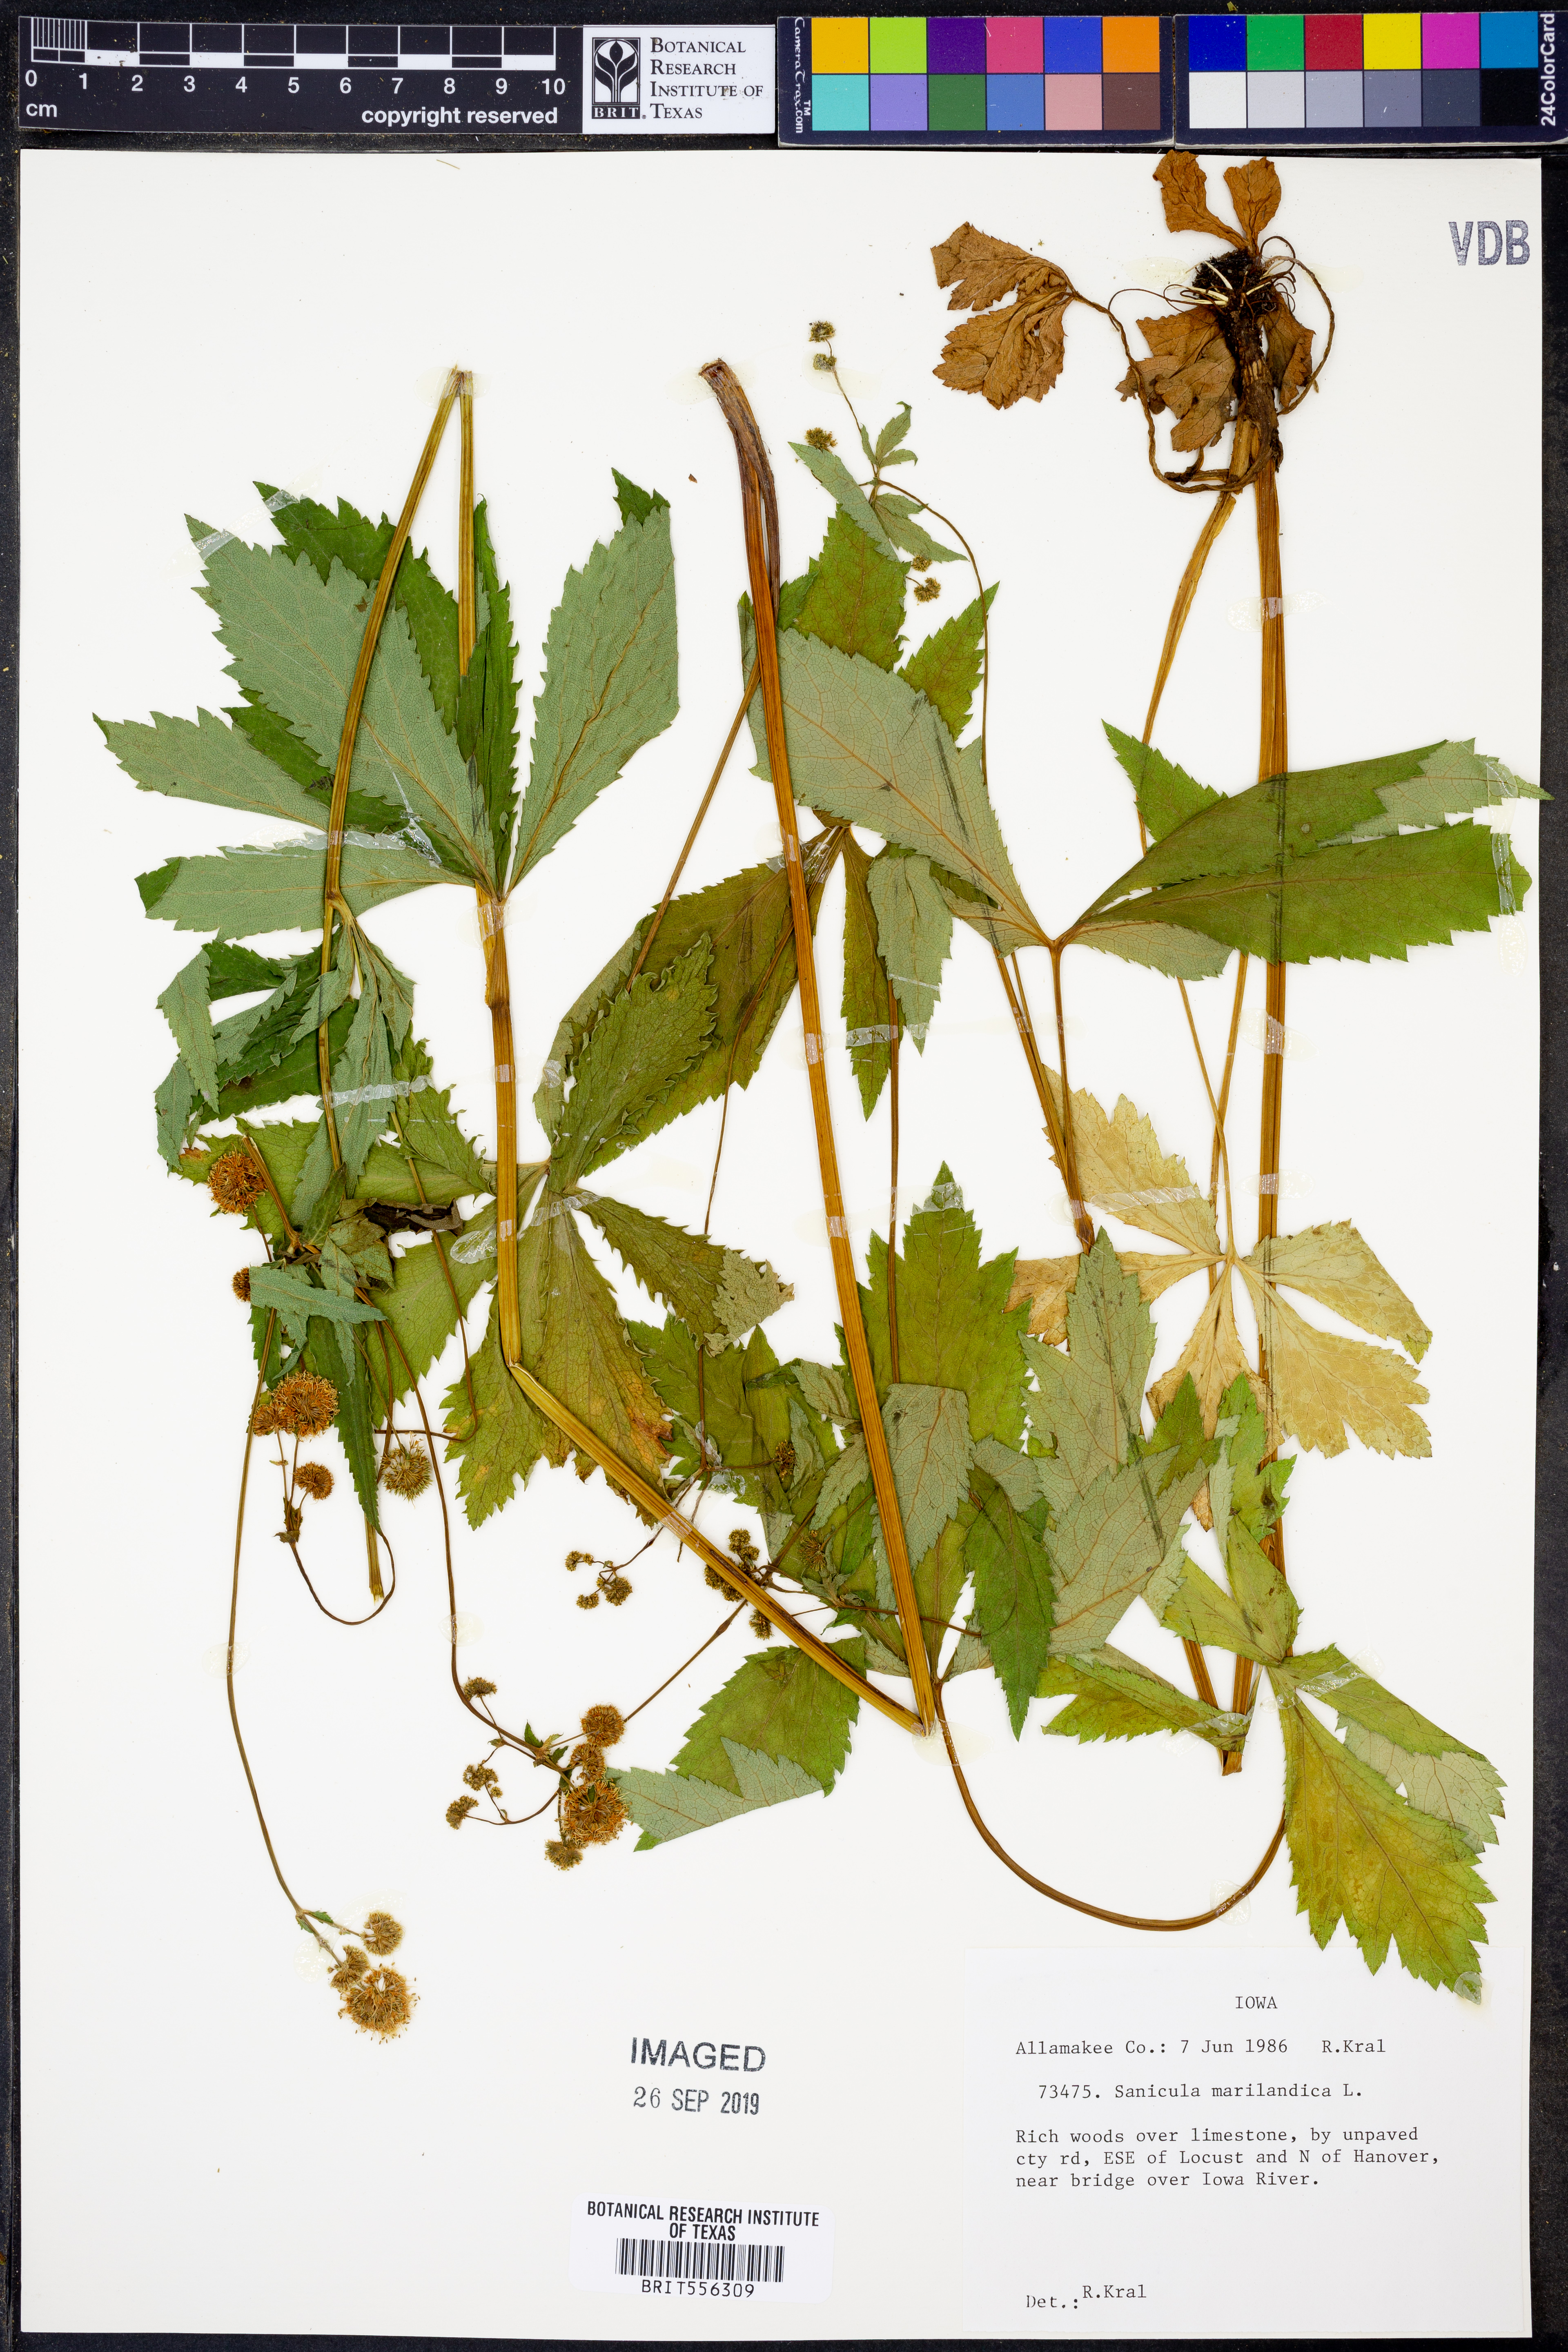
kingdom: Plantae
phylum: Tracheophyta
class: Magnoliopsida
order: Apiales
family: Apiaceae
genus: Sanicula
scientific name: Sanicula marilandica
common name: Black snakeroot
